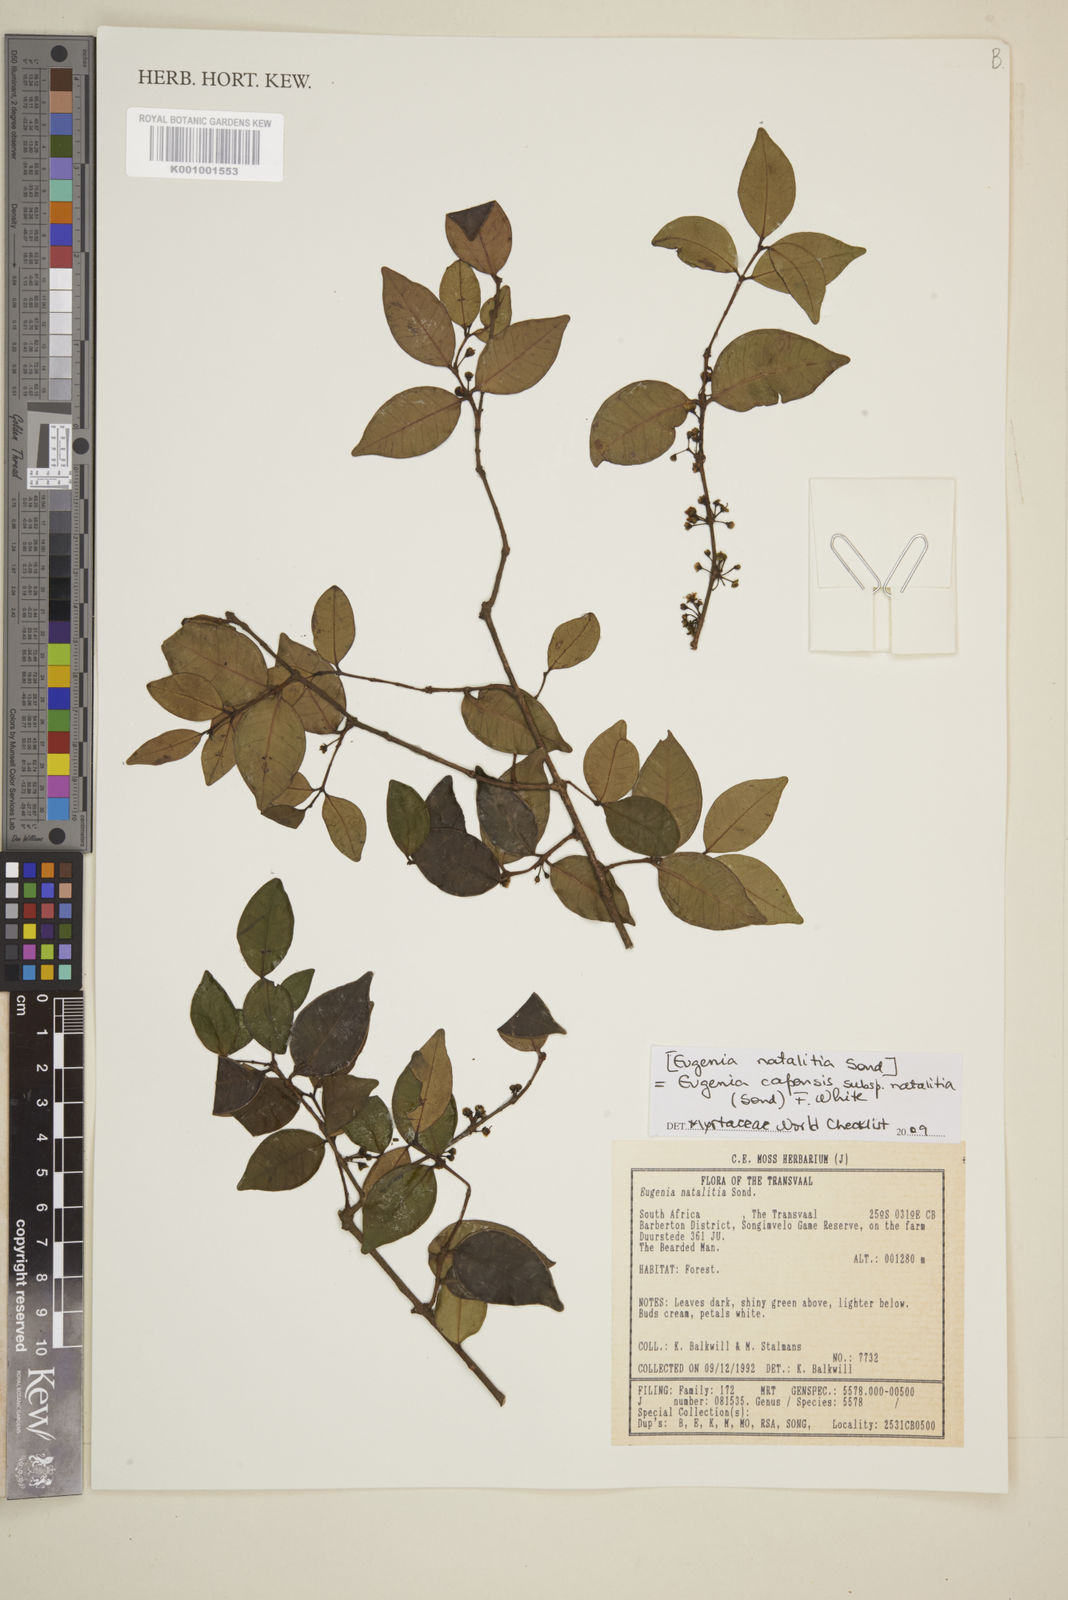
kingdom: Plantae
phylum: Tracheophyta
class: Magnoliopsida
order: Myrtales
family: Myrtaceae
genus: Eugenia
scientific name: Eugenia natalitia
